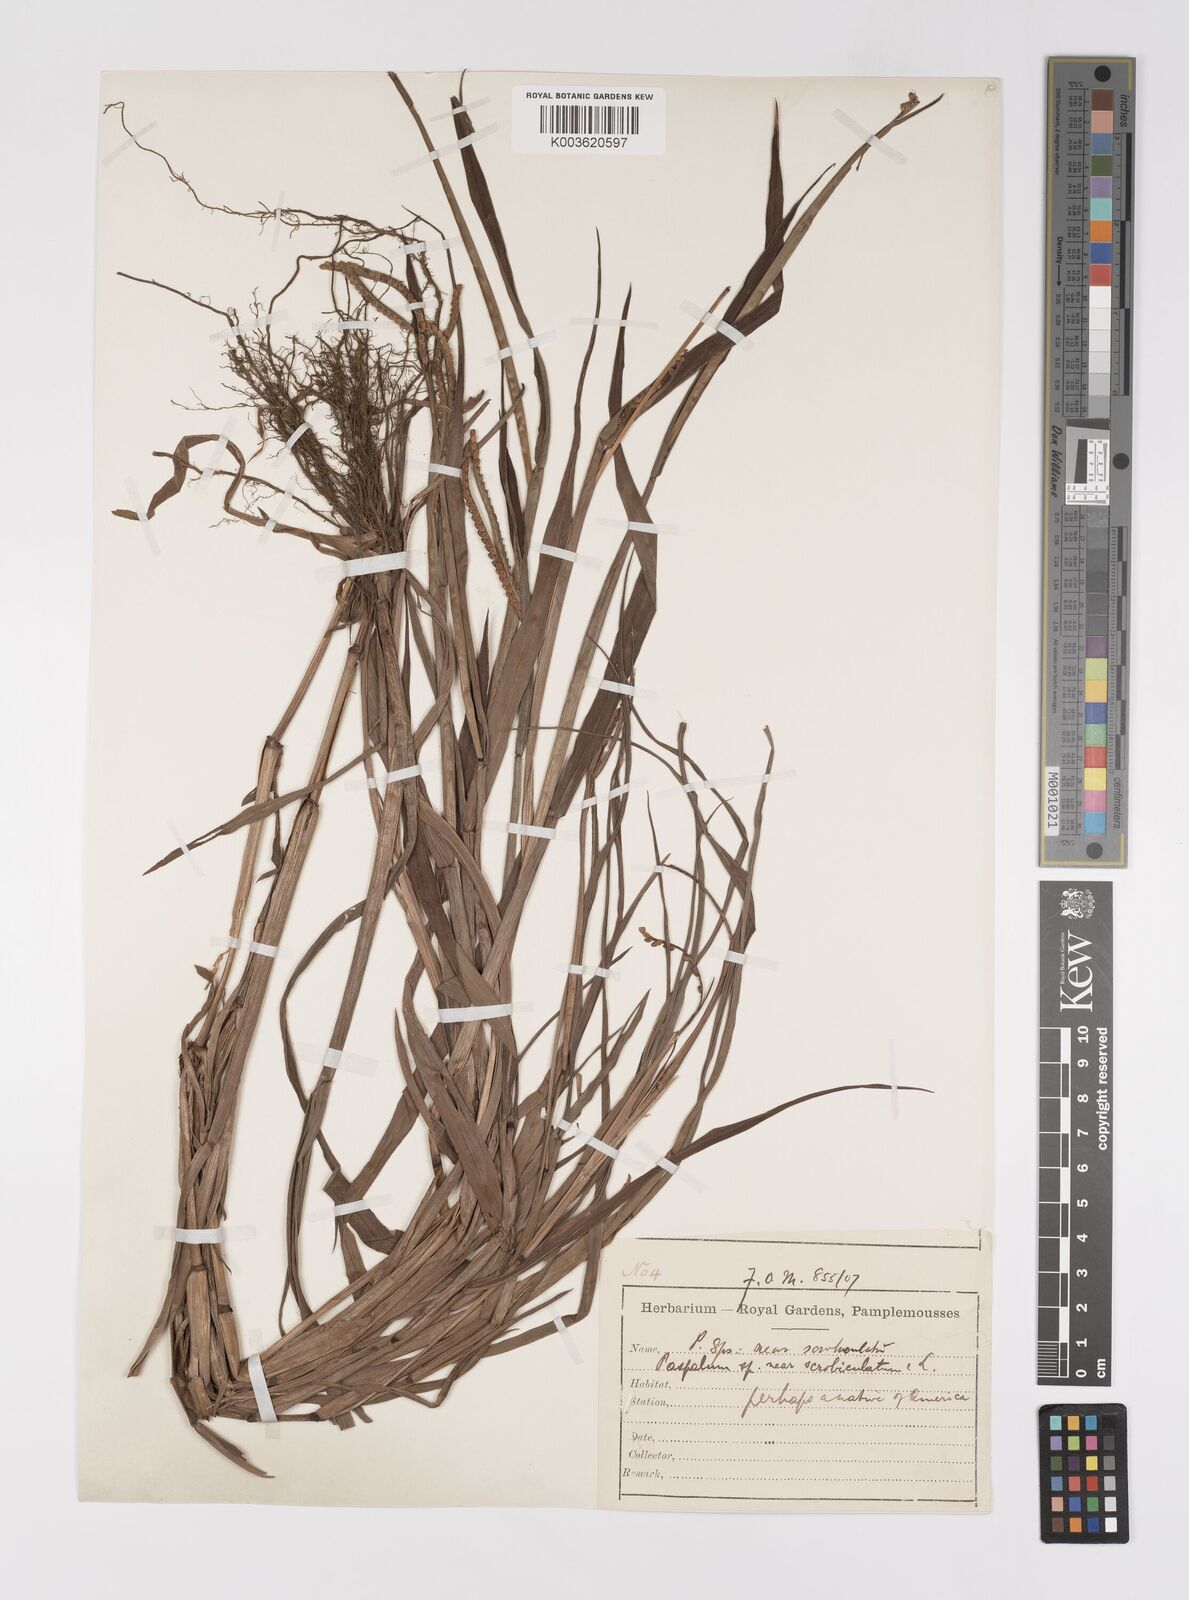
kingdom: Plantae
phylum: Tracheophyta
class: Liliopsida
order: Poales
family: Poaceae
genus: Paspalum
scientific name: Paspalum scrobiculatum
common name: Kodo millet
